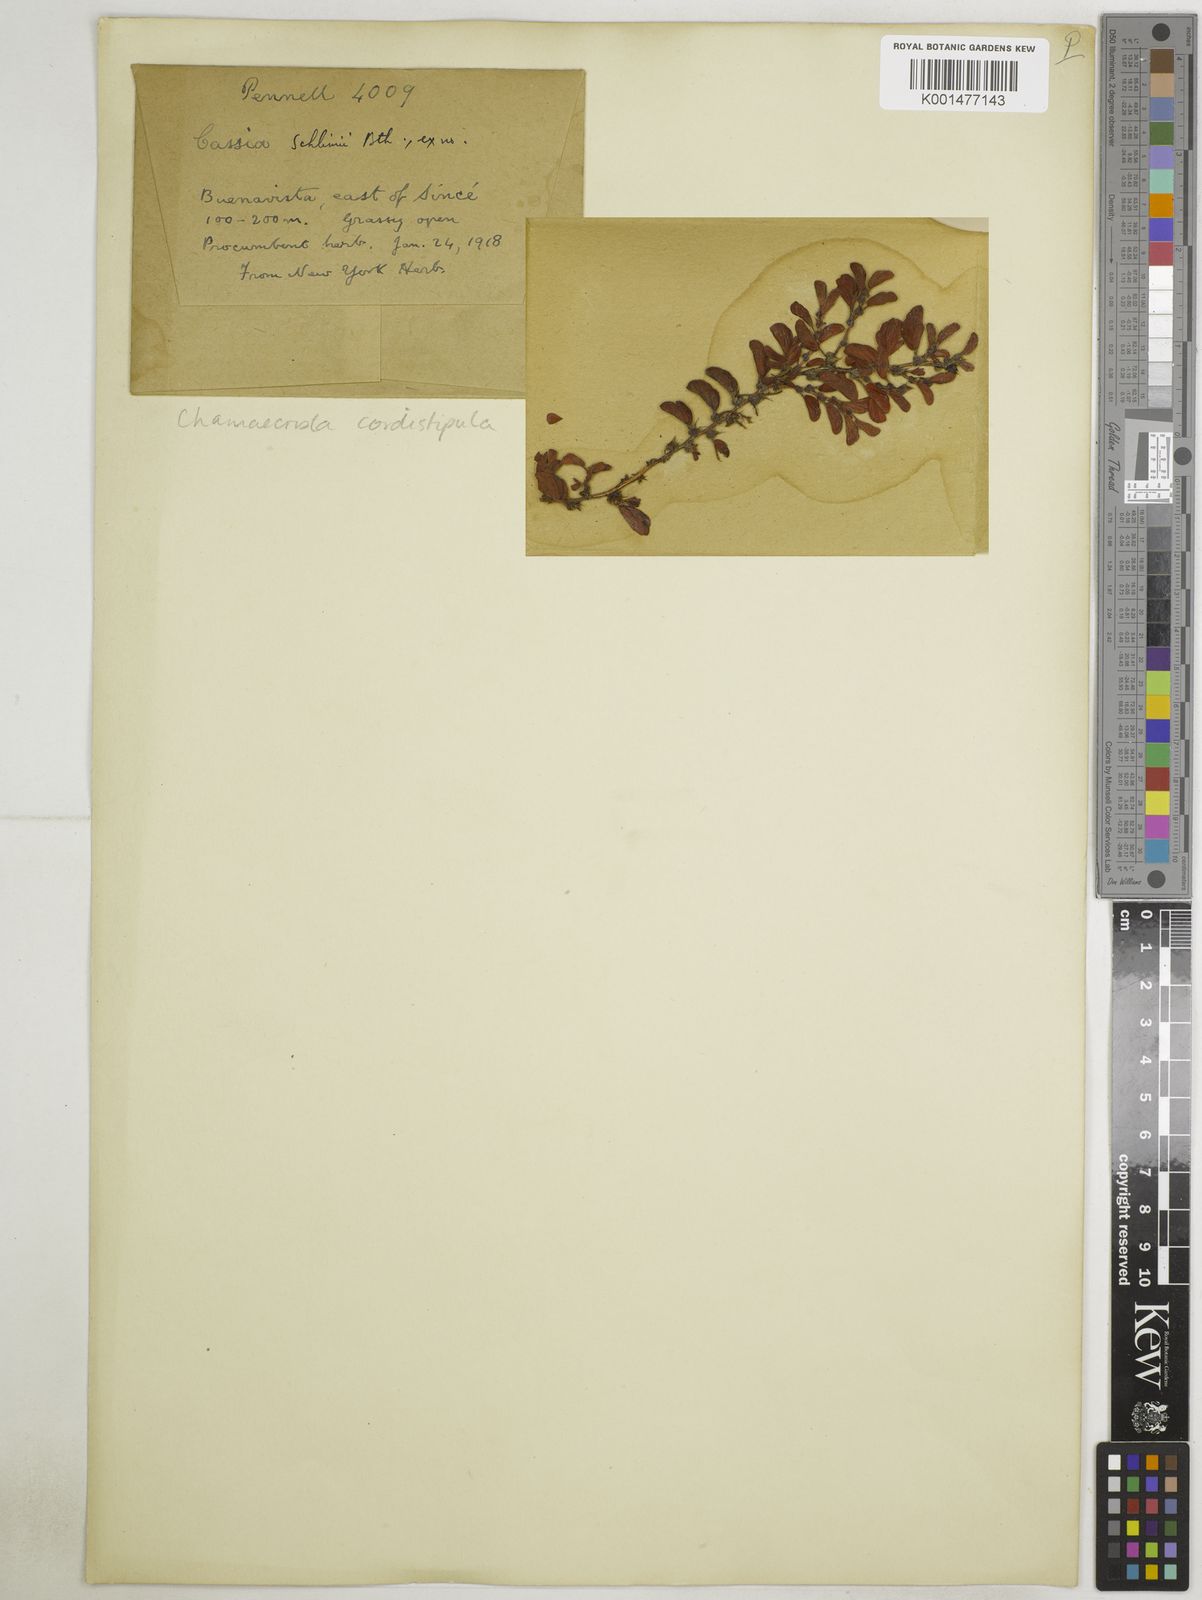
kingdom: Plantae
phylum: Tracheophyta
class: Magnoliopsida
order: Fabales
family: Fabaceae
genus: Chamaecrista
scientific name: Chamaecrista cordistipula
